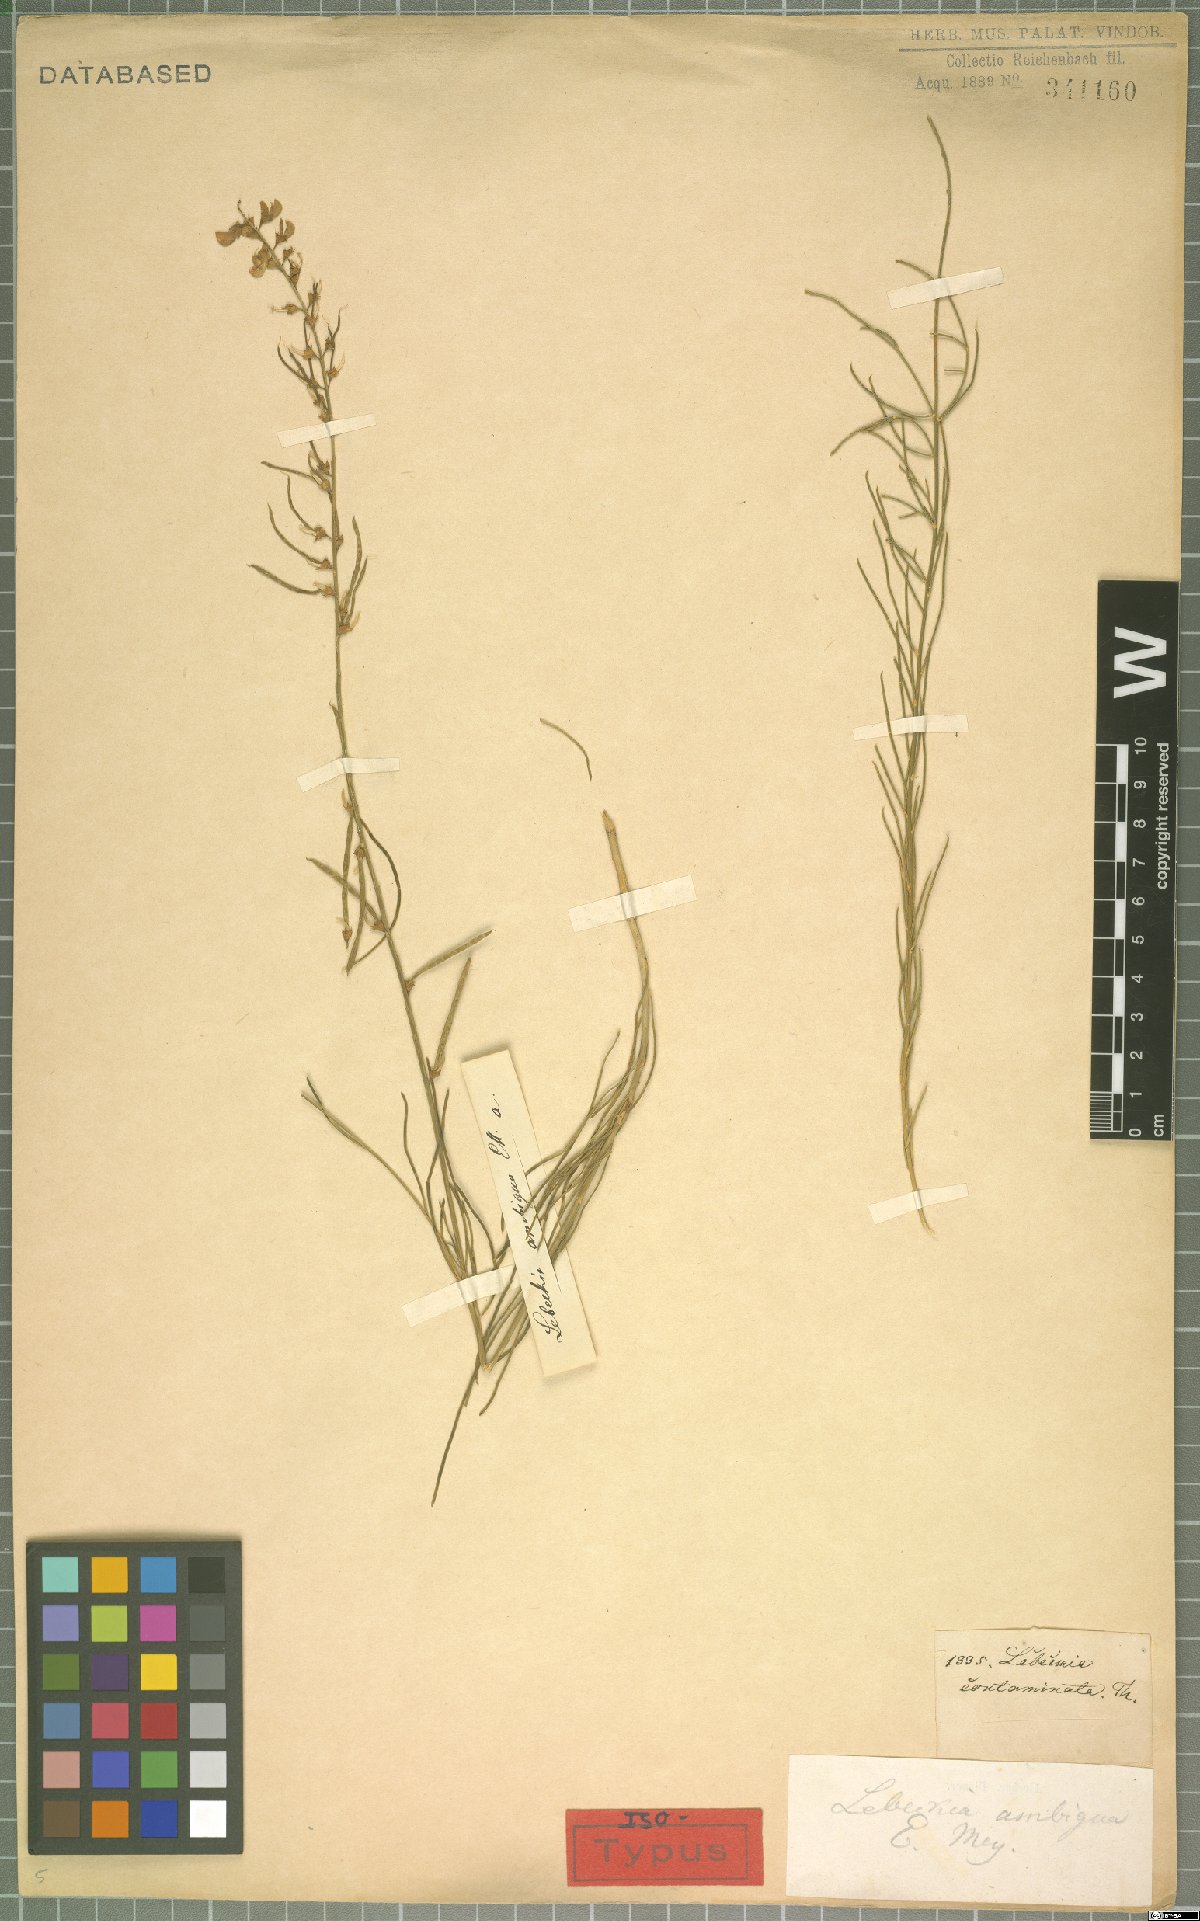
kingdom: Plantae
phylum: Tracheophyta
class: Magnoliopsida
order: Fabales
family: Fabaceae
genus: Lebeckia
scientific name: Lebeckia ambigua
